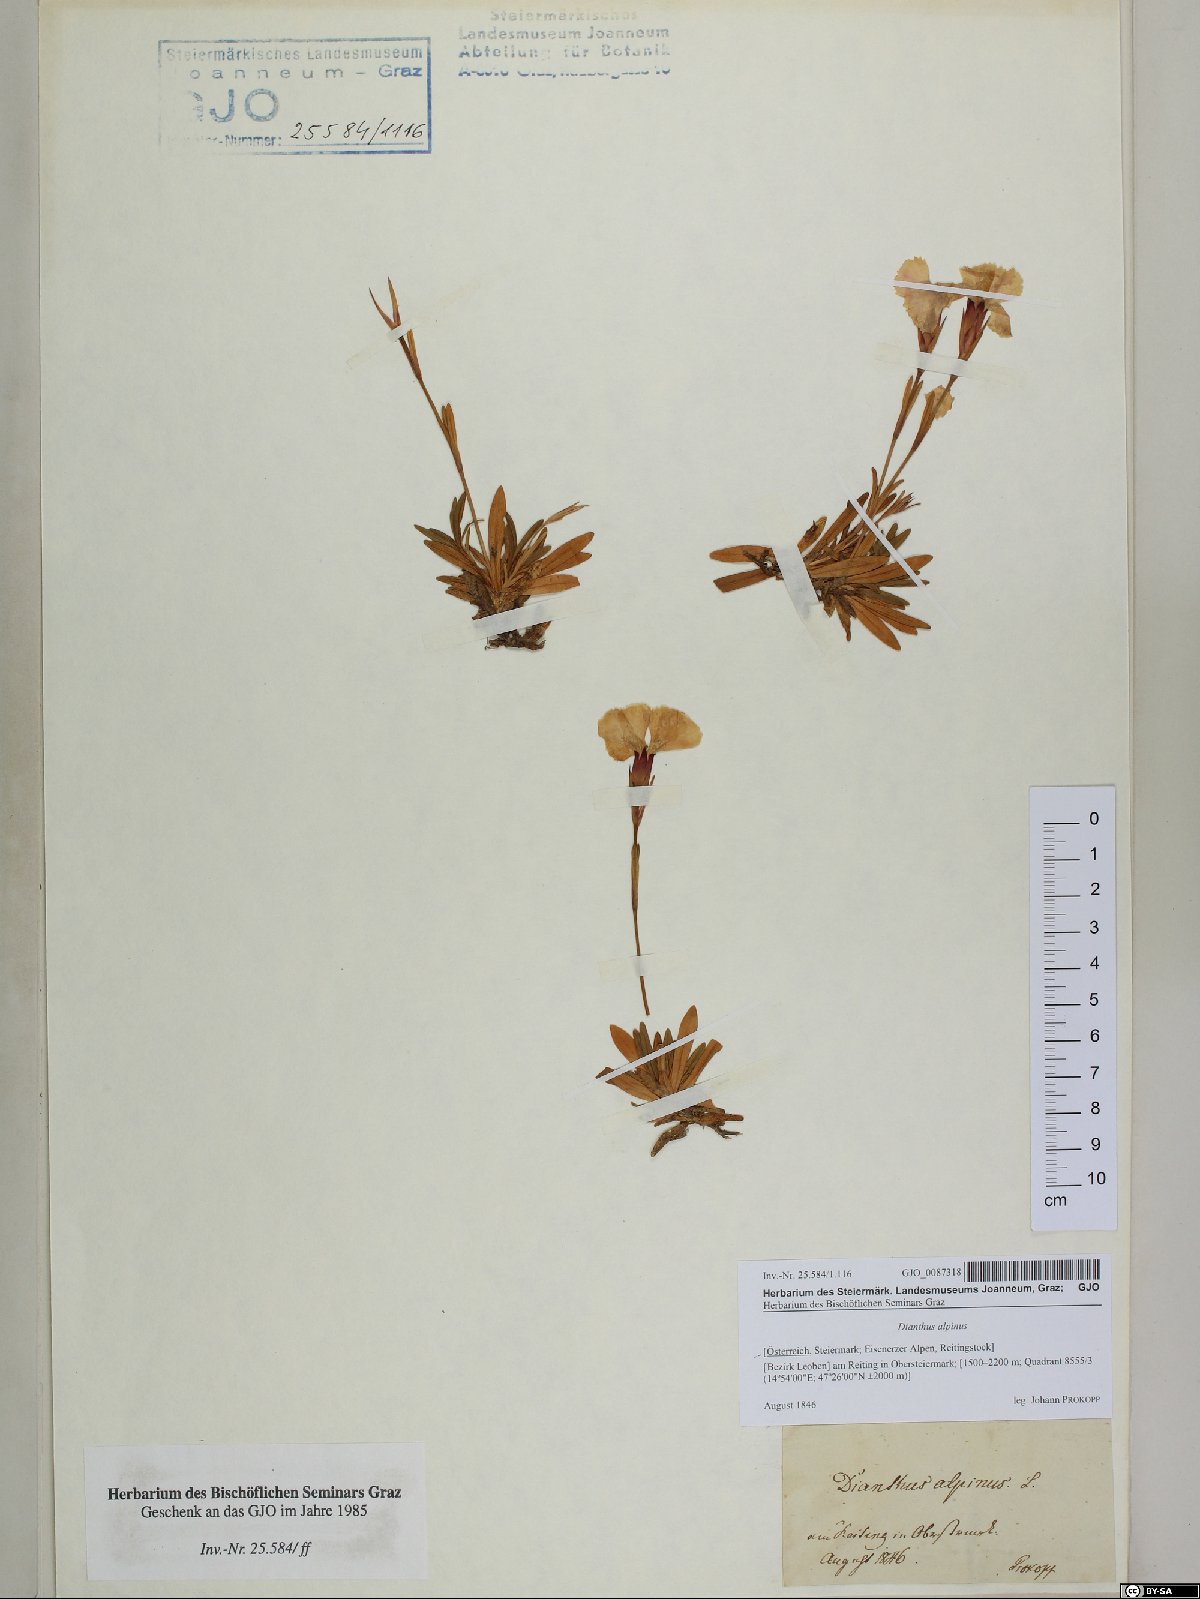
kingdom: Plantae
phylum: Tracheophyta
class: Magnoliopsida
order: Caryophyllales
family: Caryophyllaceae
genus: Dianthus
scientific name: Dianthus alpinus
